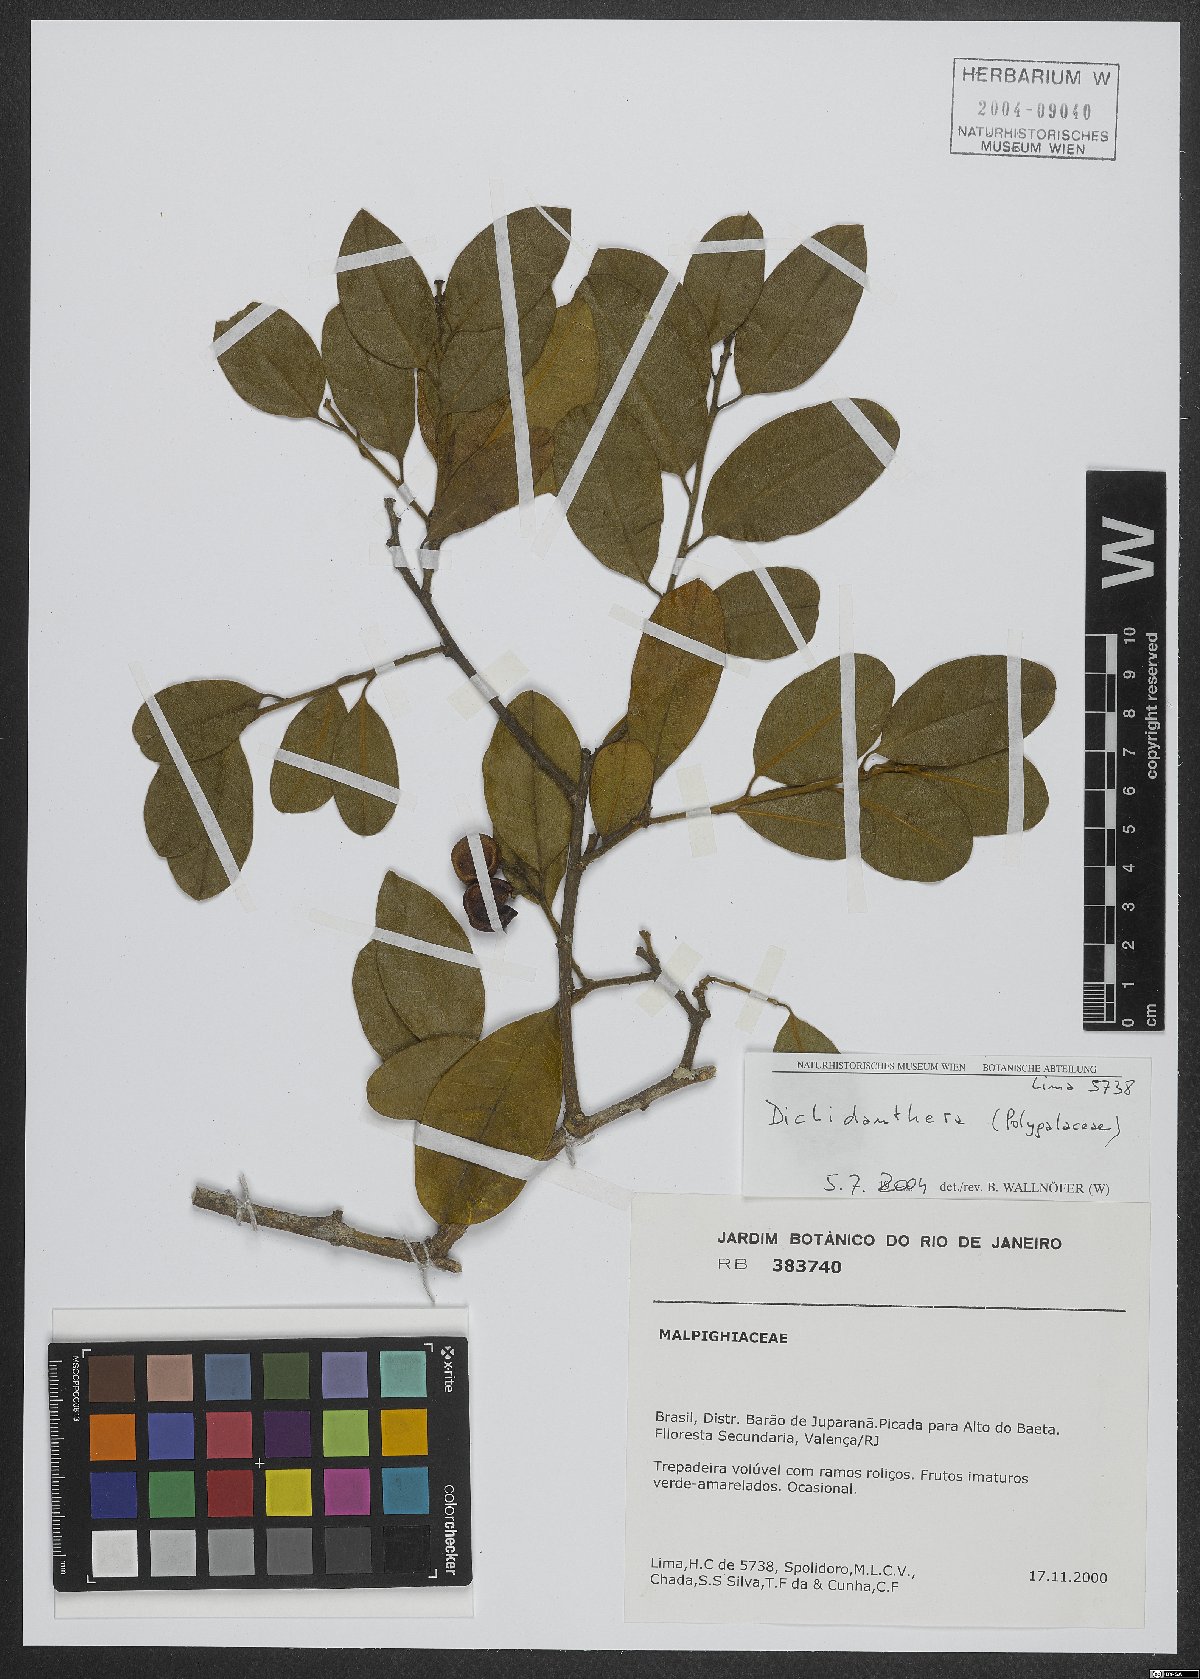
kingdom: Plantae
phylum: Tracheophyta
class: Magnoliopsida
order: Fabales
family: Polygalaceae
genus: Diclidanthera
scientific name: Diclidanthera
